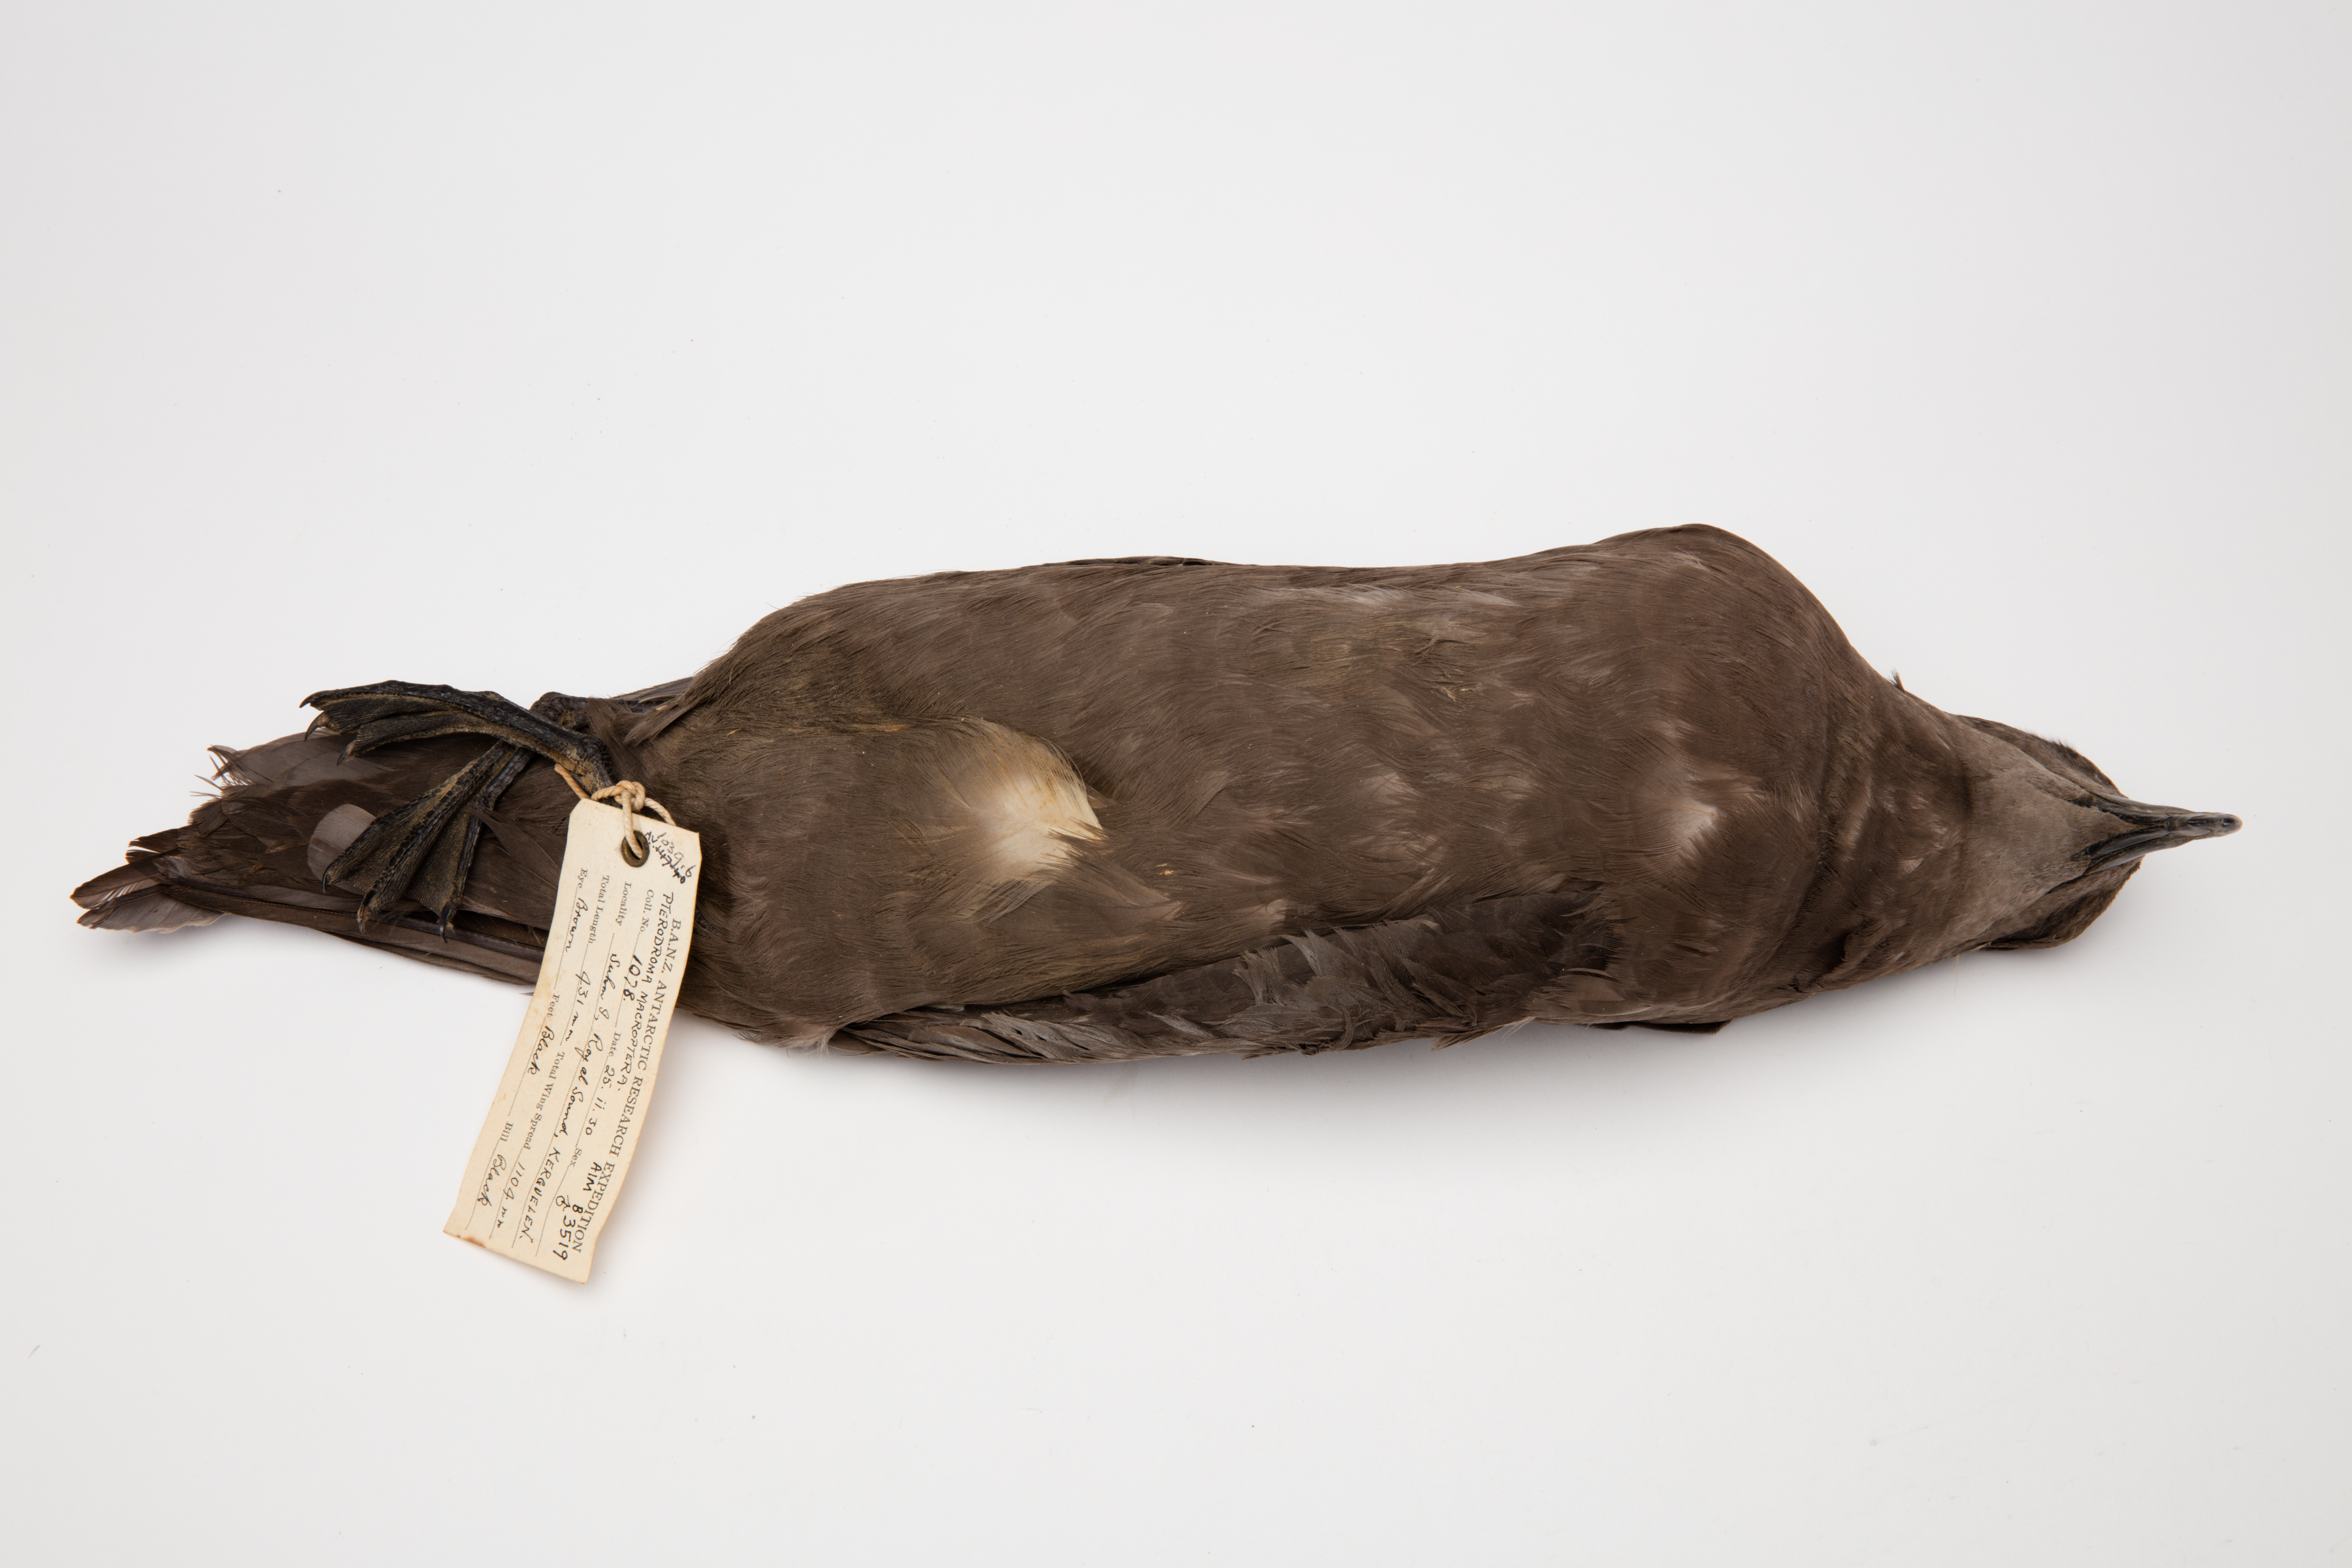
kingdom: Animalia
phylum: Chordata
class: Aves
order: Procellariiformes
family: Procellariidae
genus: Pterodroma
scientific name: Pterodroma macroptera
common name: Great-winged petrel
